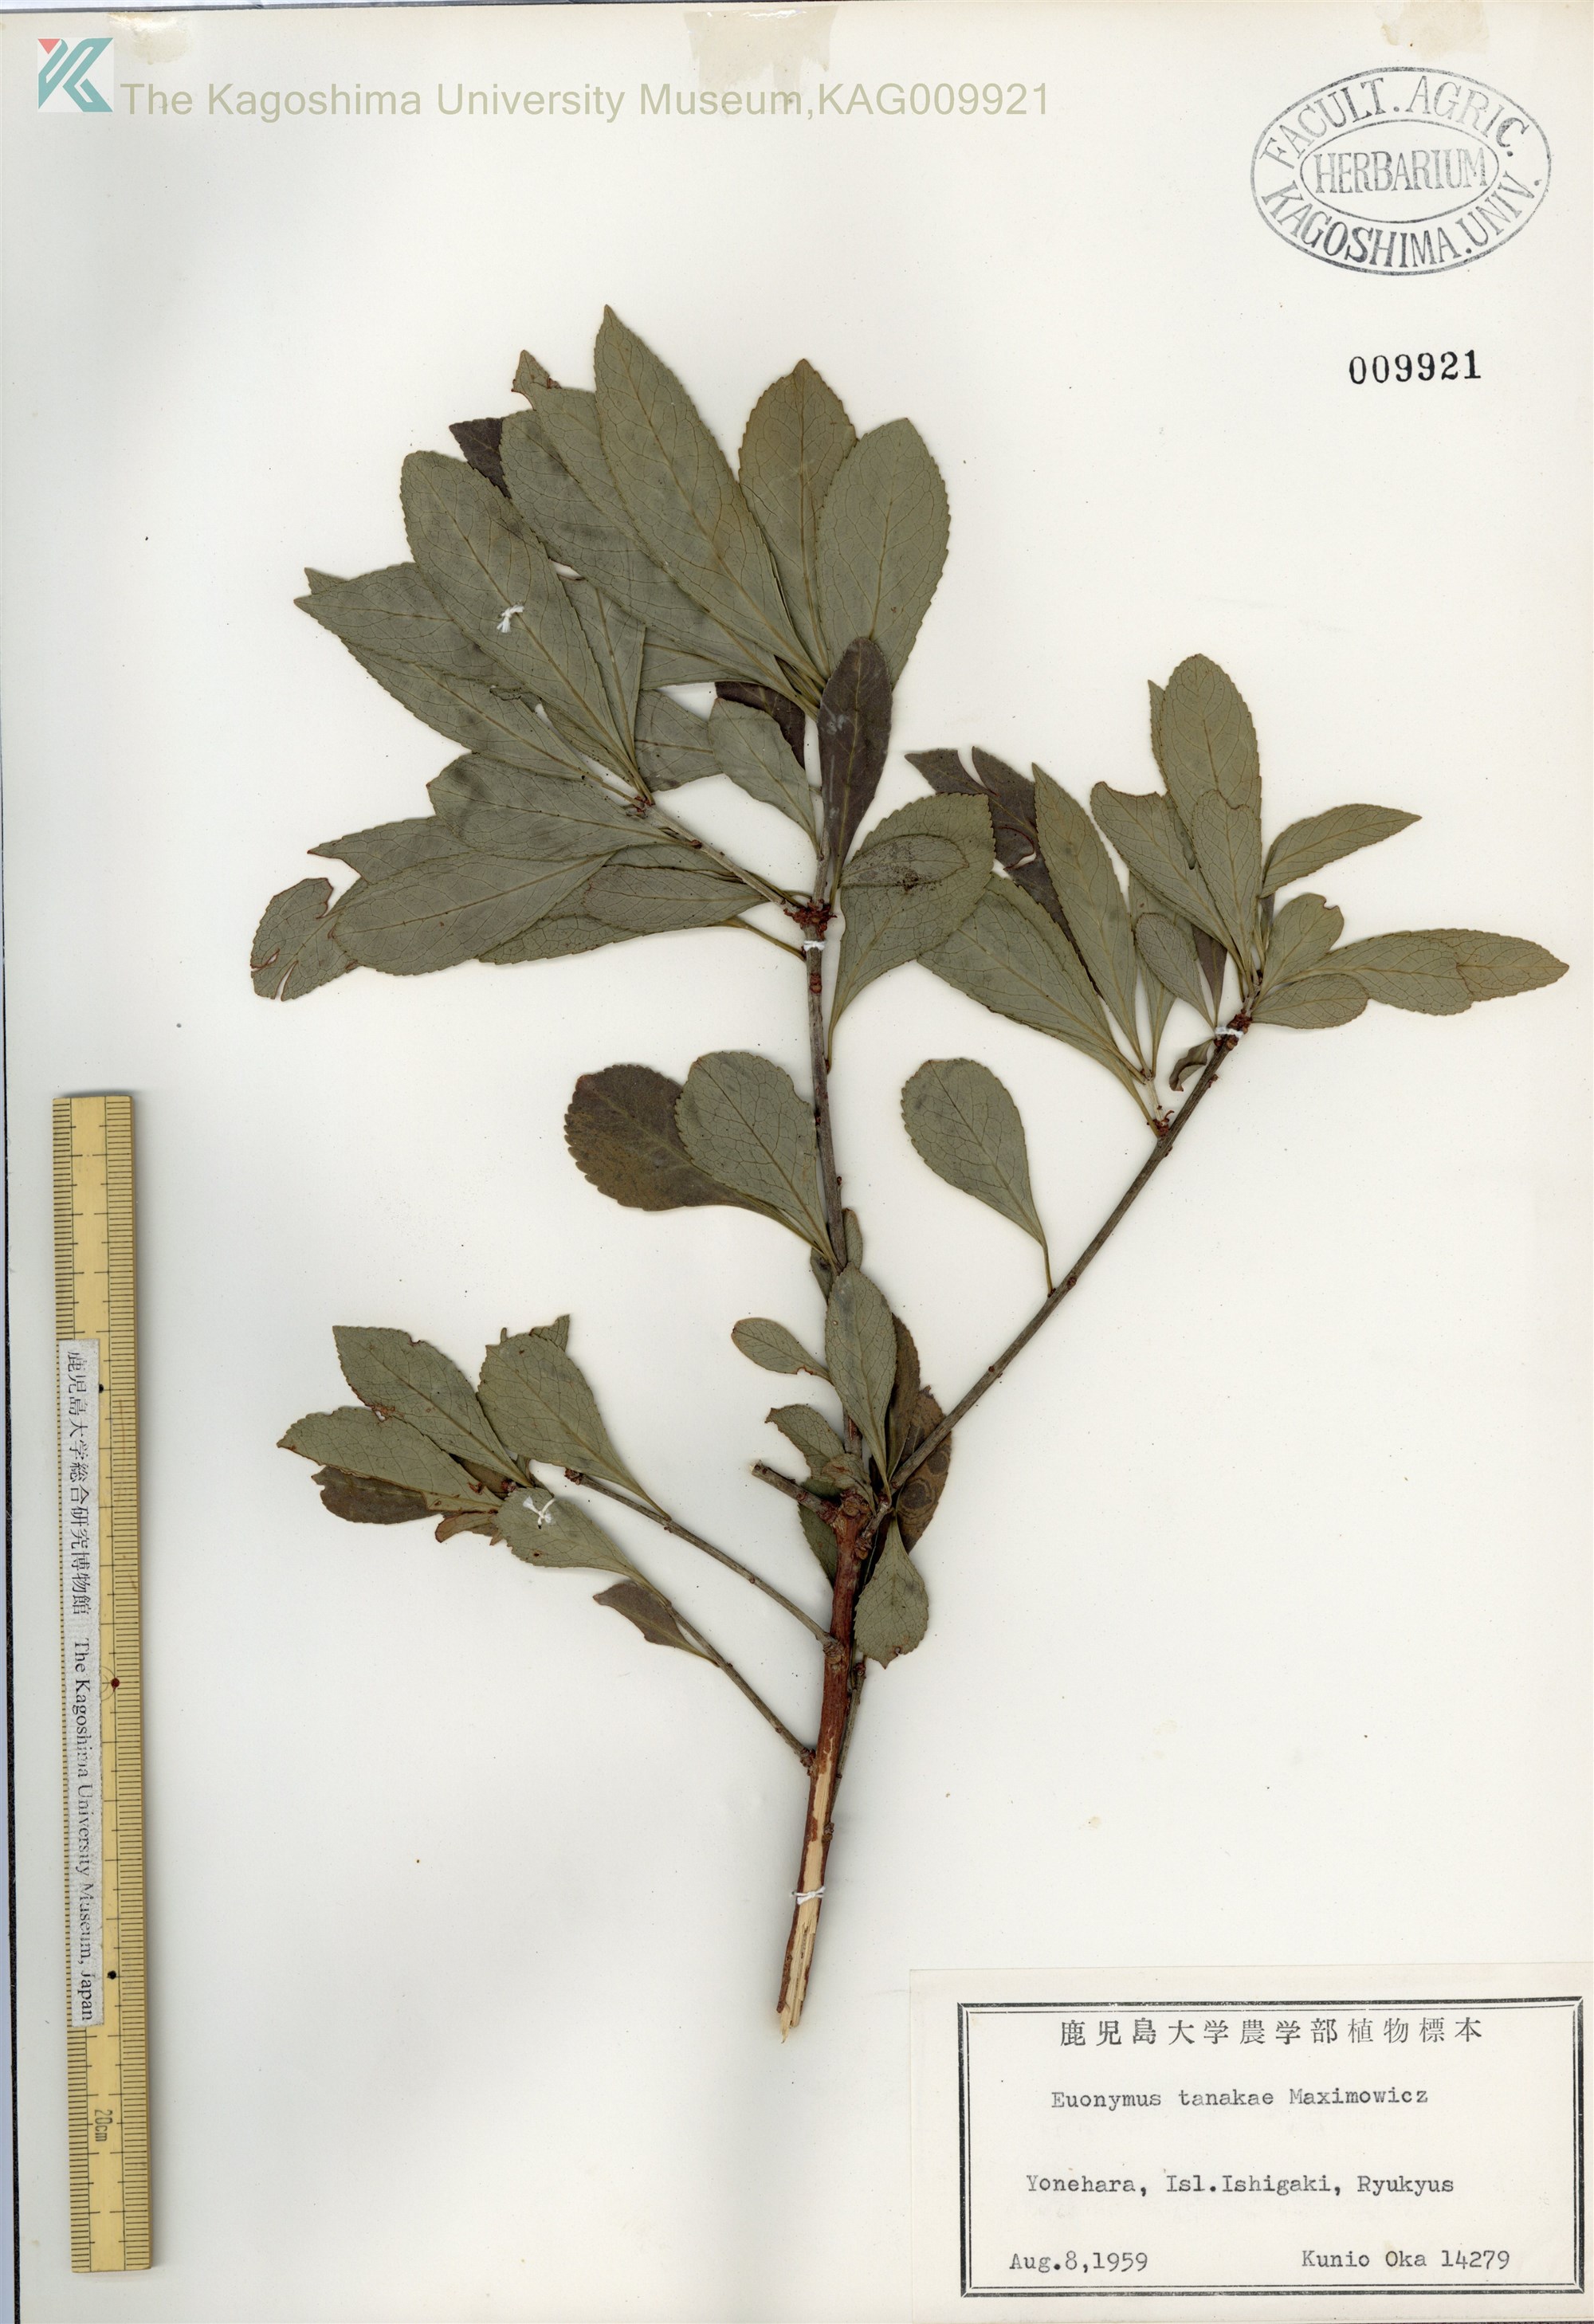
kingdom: Plantae
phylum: Tracheophyta
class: Magnoliopsida
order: Celastrales
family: Celastraceae
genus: Euonymus
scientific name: Euonymus carnosus
